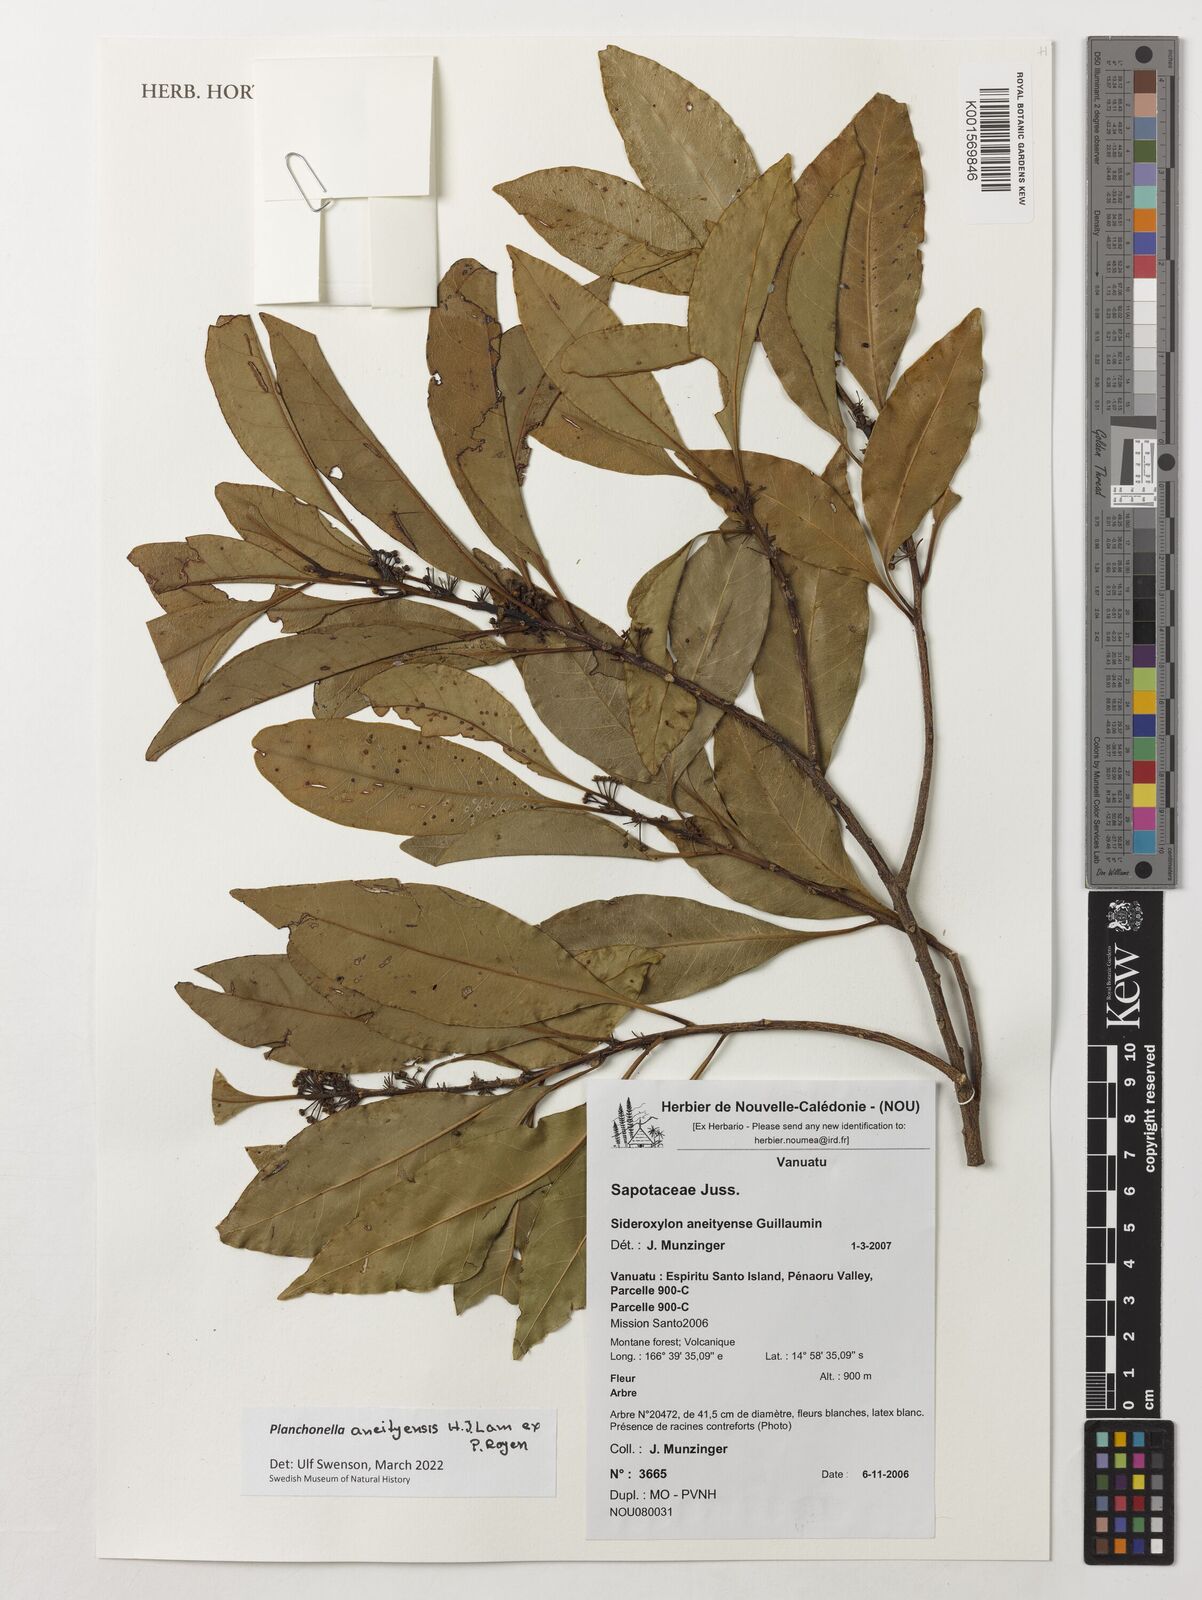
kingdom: Plantae
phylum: Tracheophyta
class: Magnoliopsida
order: Ericales
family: Sapotaceae
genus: Planchonella
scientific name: Planchonella aneityensis
